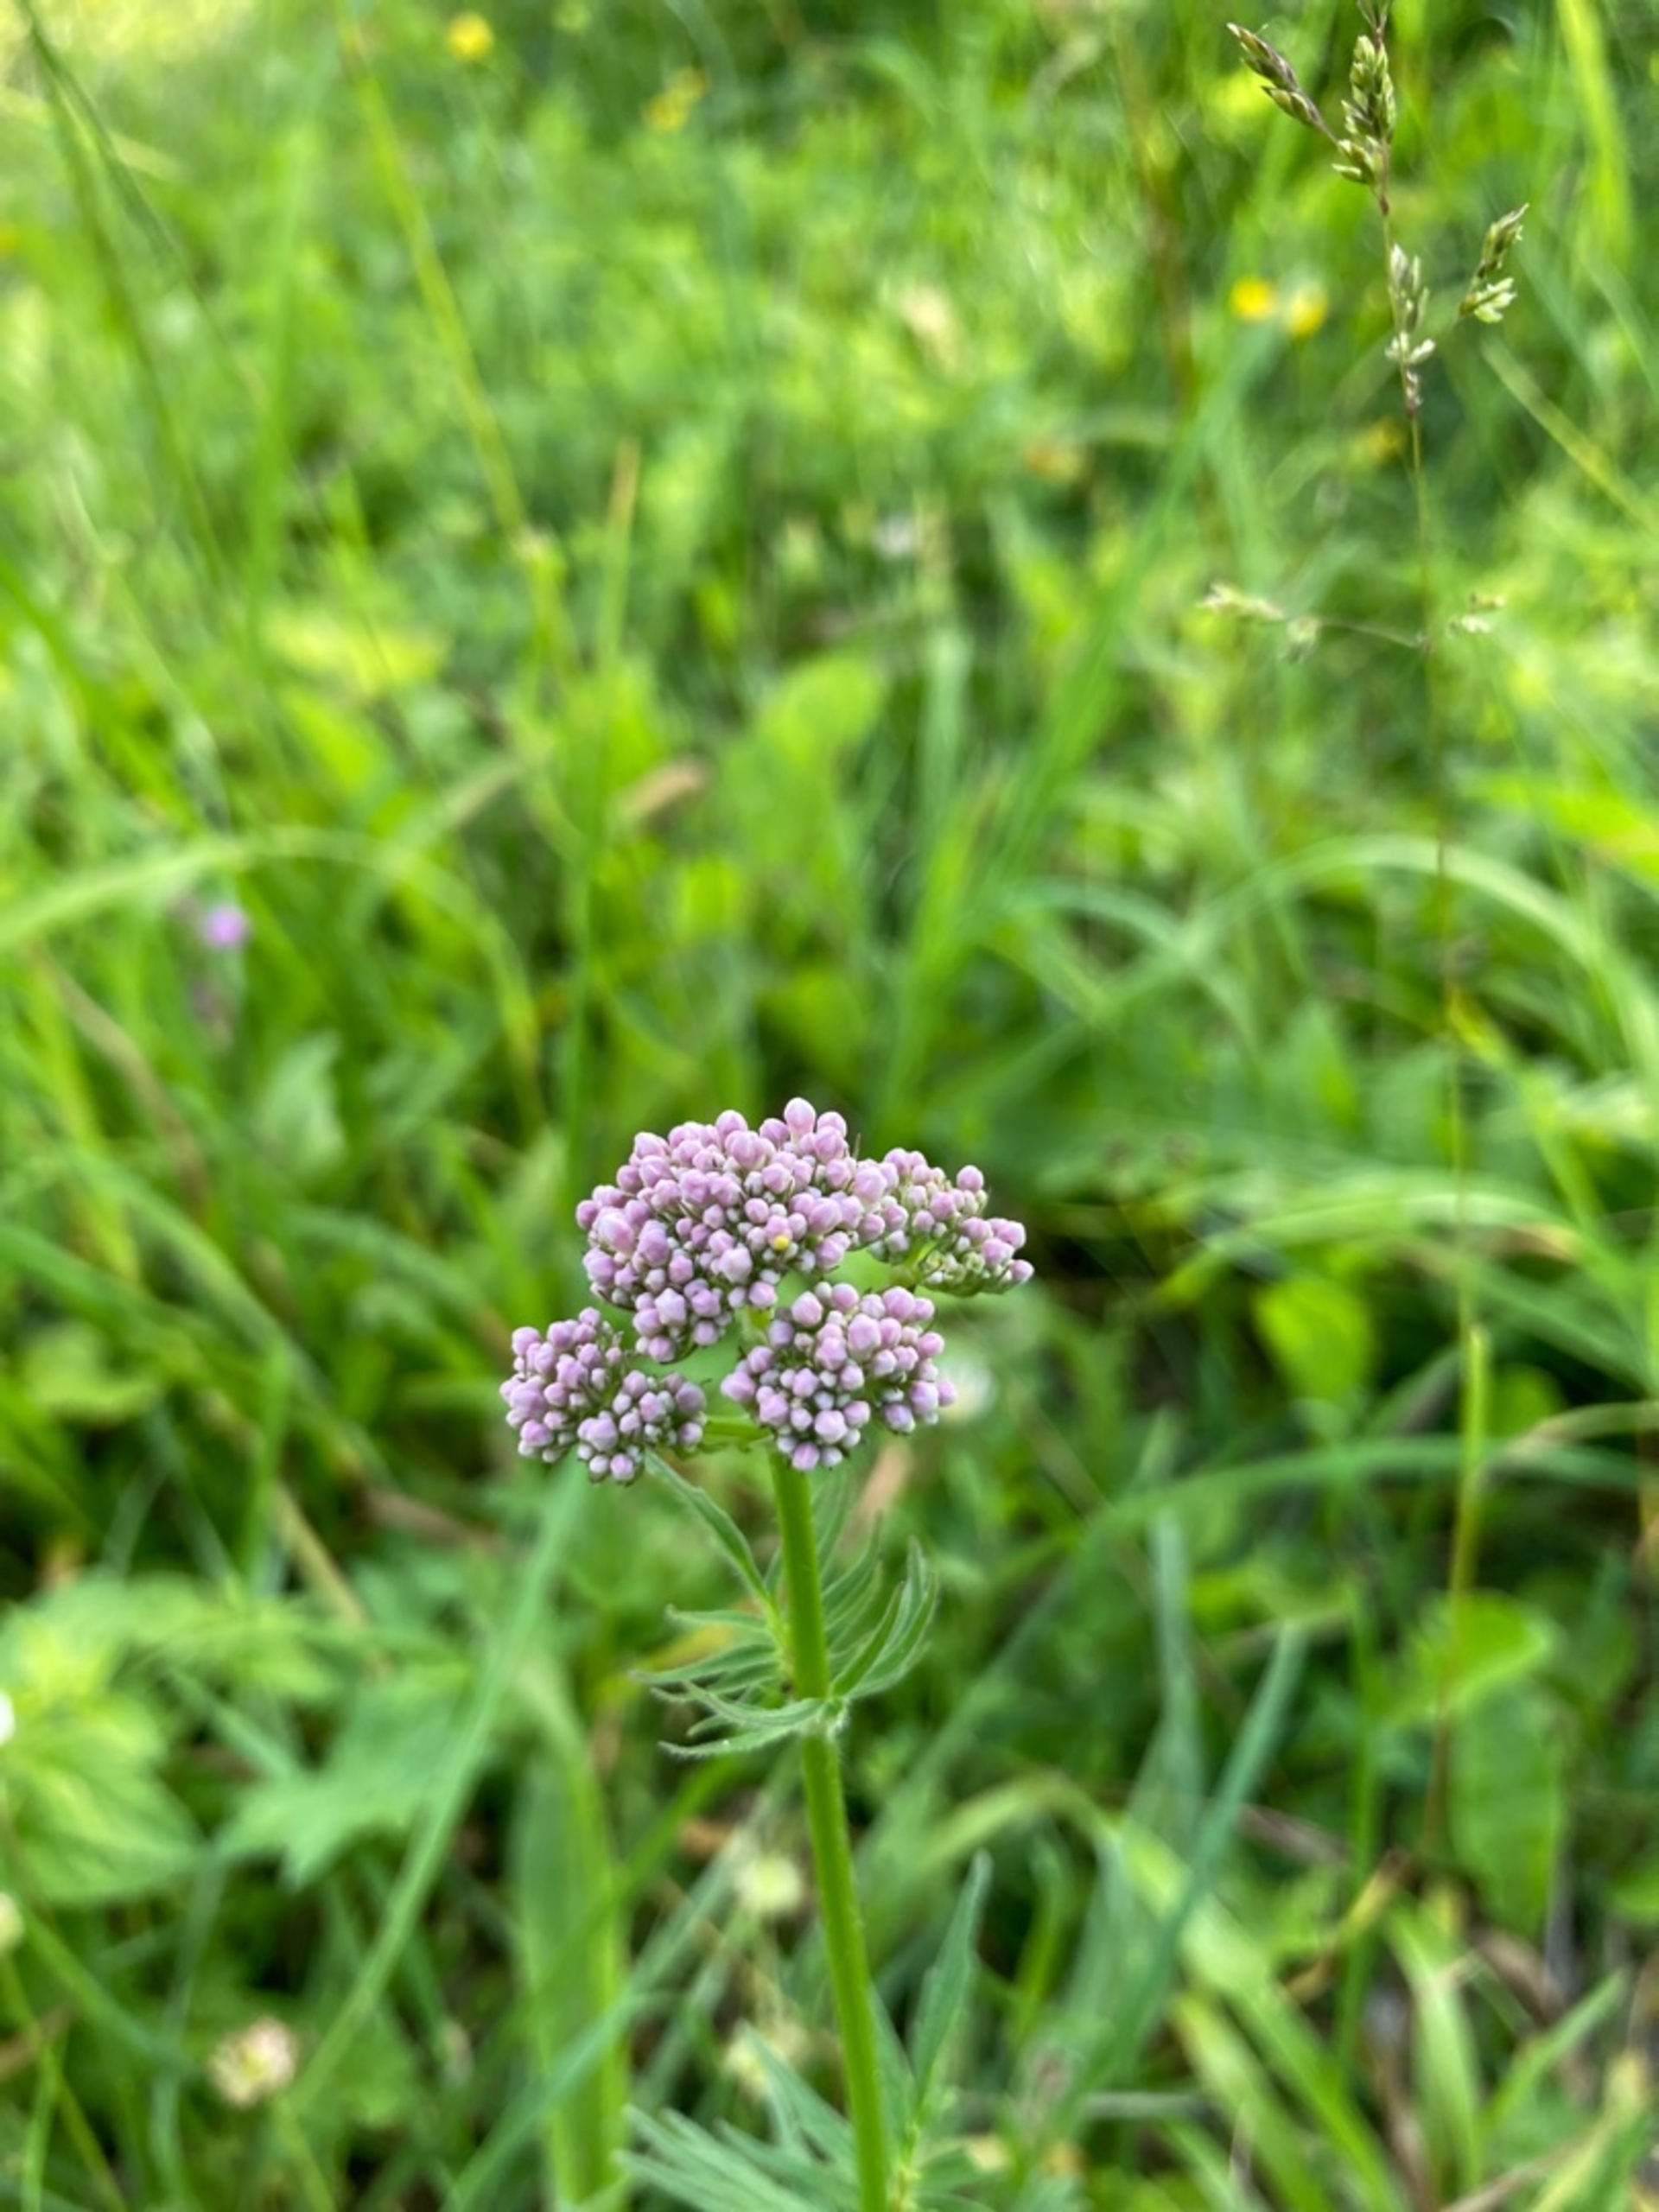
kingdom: Plantae
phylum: Tracheophyta
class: Magnoliopsida
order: Dipsacales
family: Caprifoliaceae
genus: Valeriana
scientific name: Valeriana officinalis
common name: Læge-baldrian
